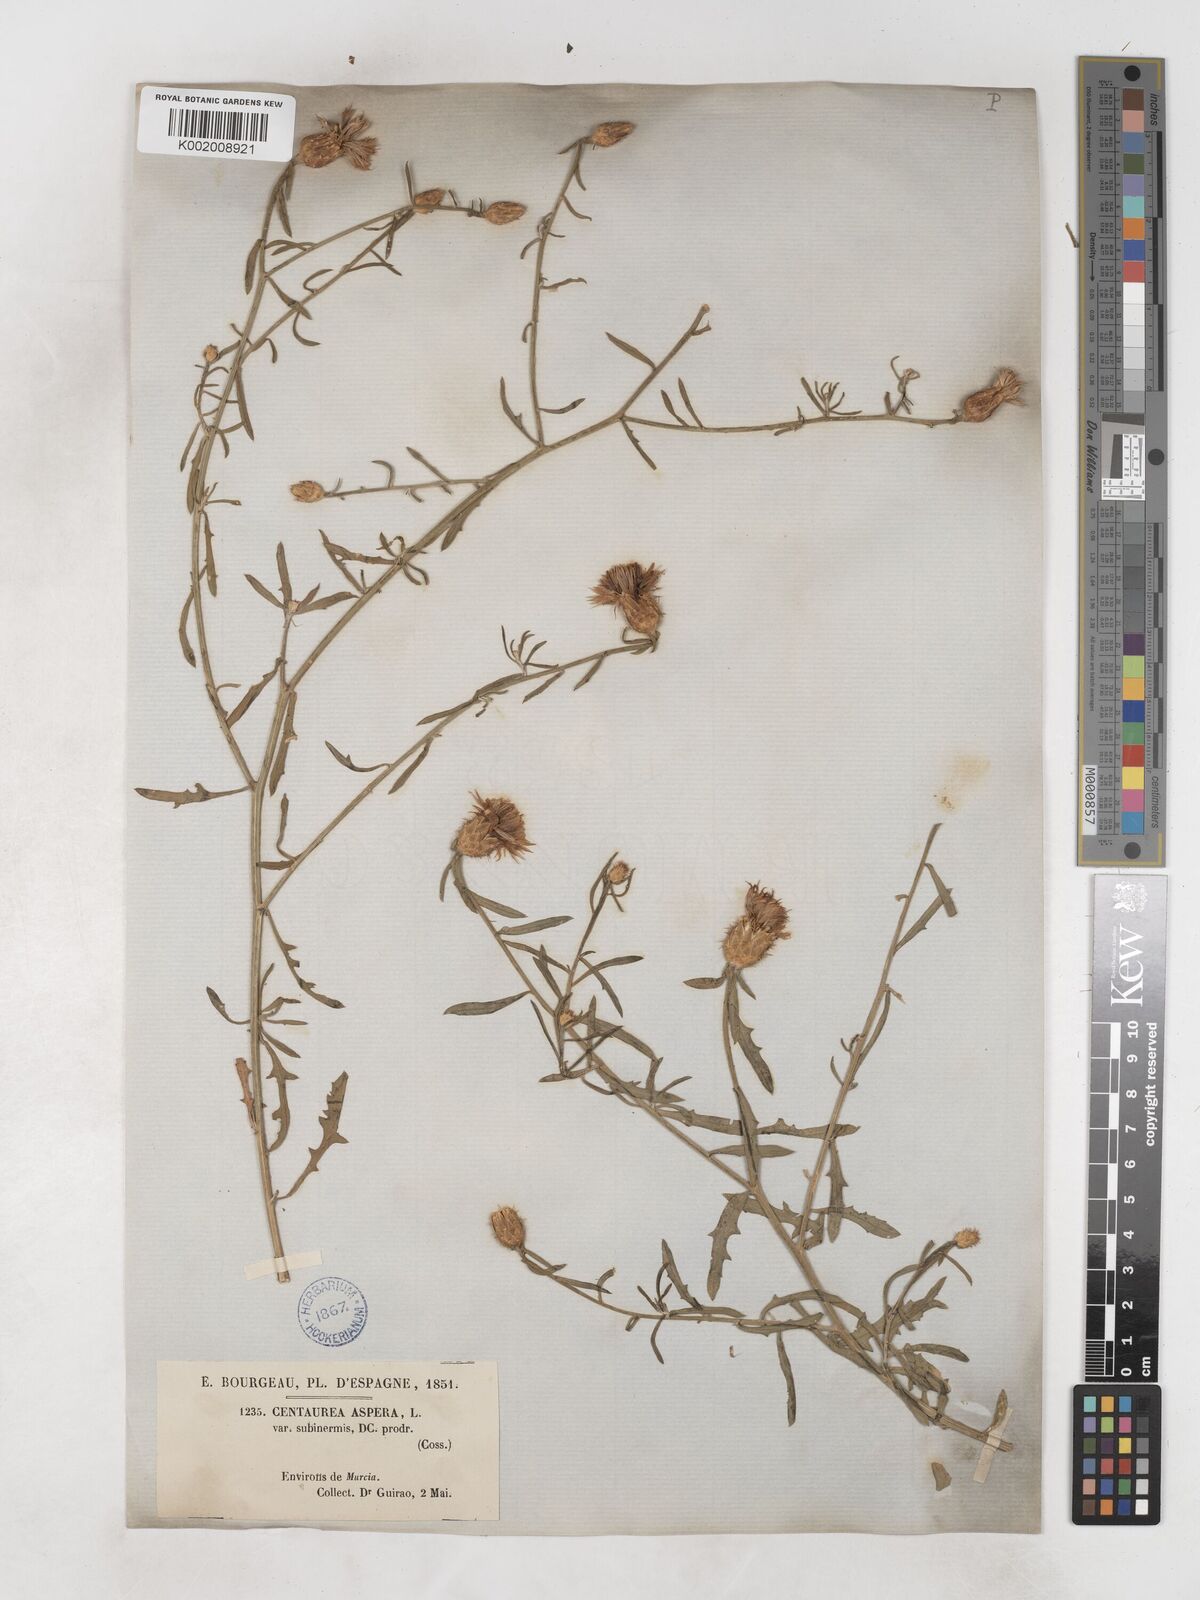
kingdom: Plantae
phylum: Tracheophyta
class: Magnoliopsida
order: Asterales
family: Asteraceae
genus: Centaurea
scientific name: Centaurea aspera
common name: Rough star-thistle
